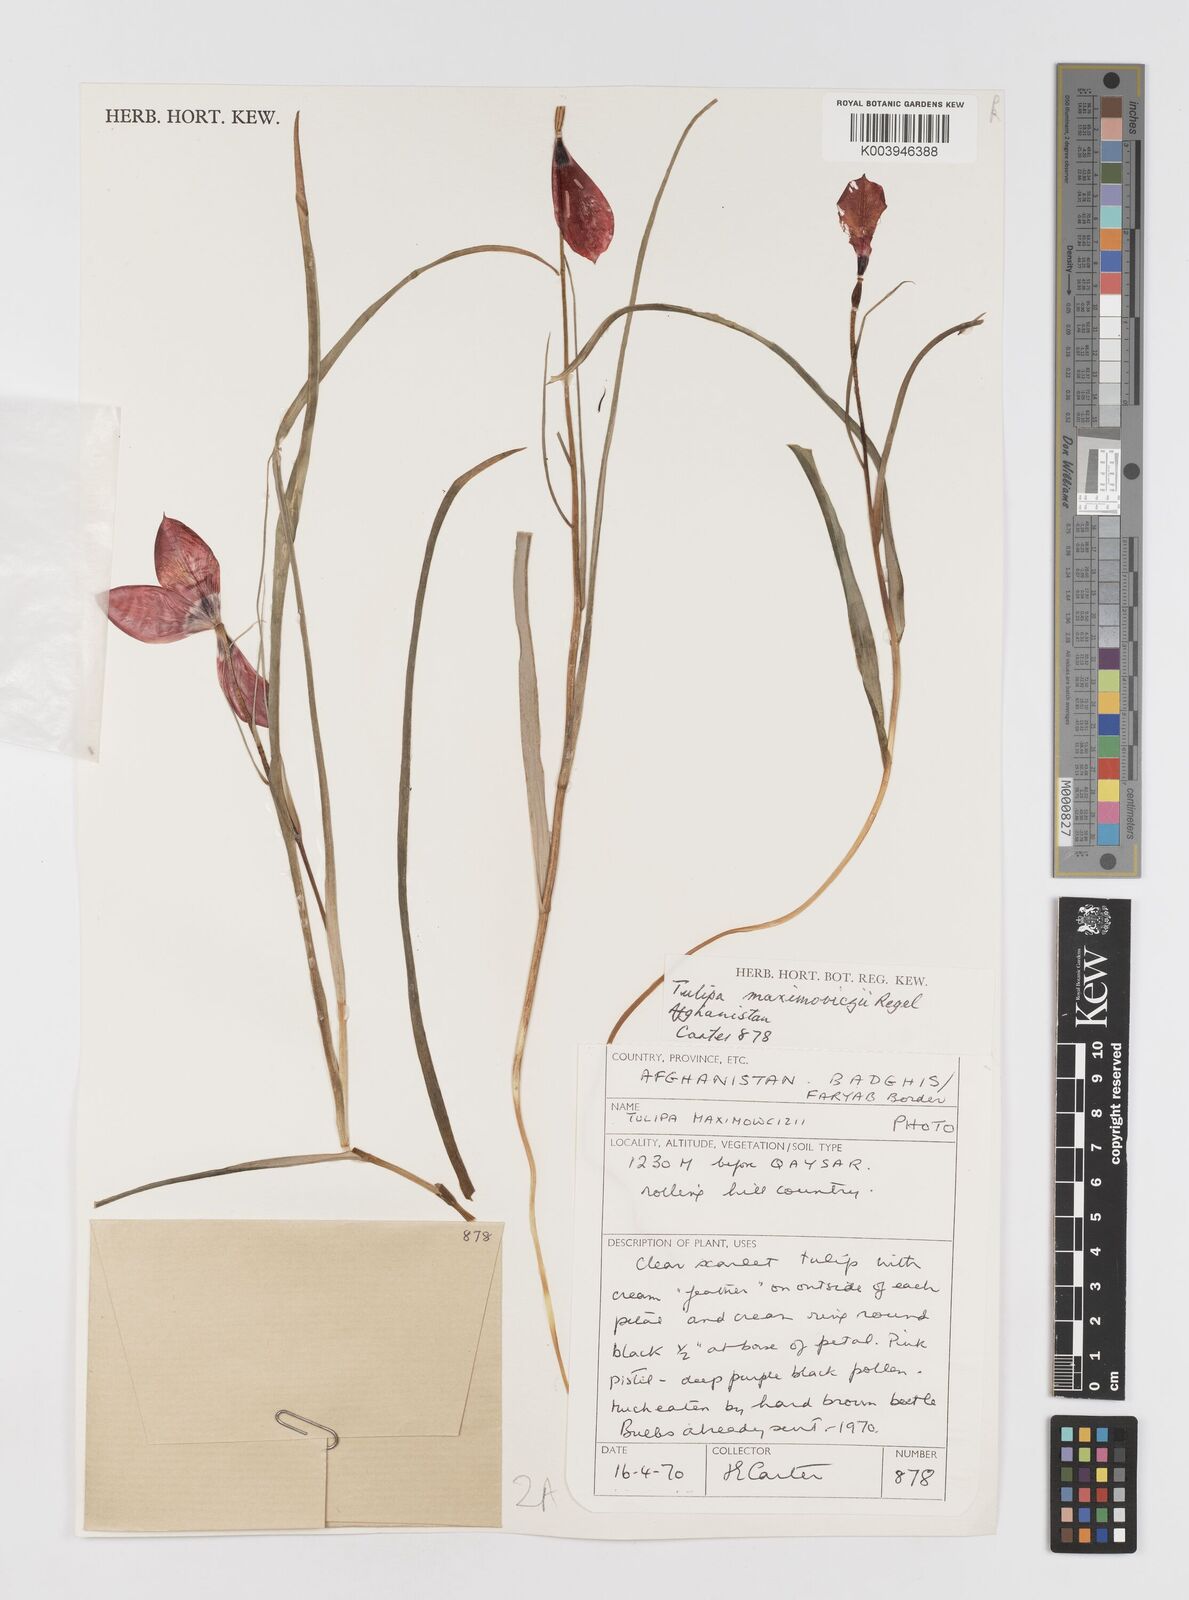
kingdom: Plantae
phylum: Tracheophyta
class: Liliopsida
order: Liliales
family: Liliaceae
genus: Tulipa
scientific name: Tulipa linifolia
